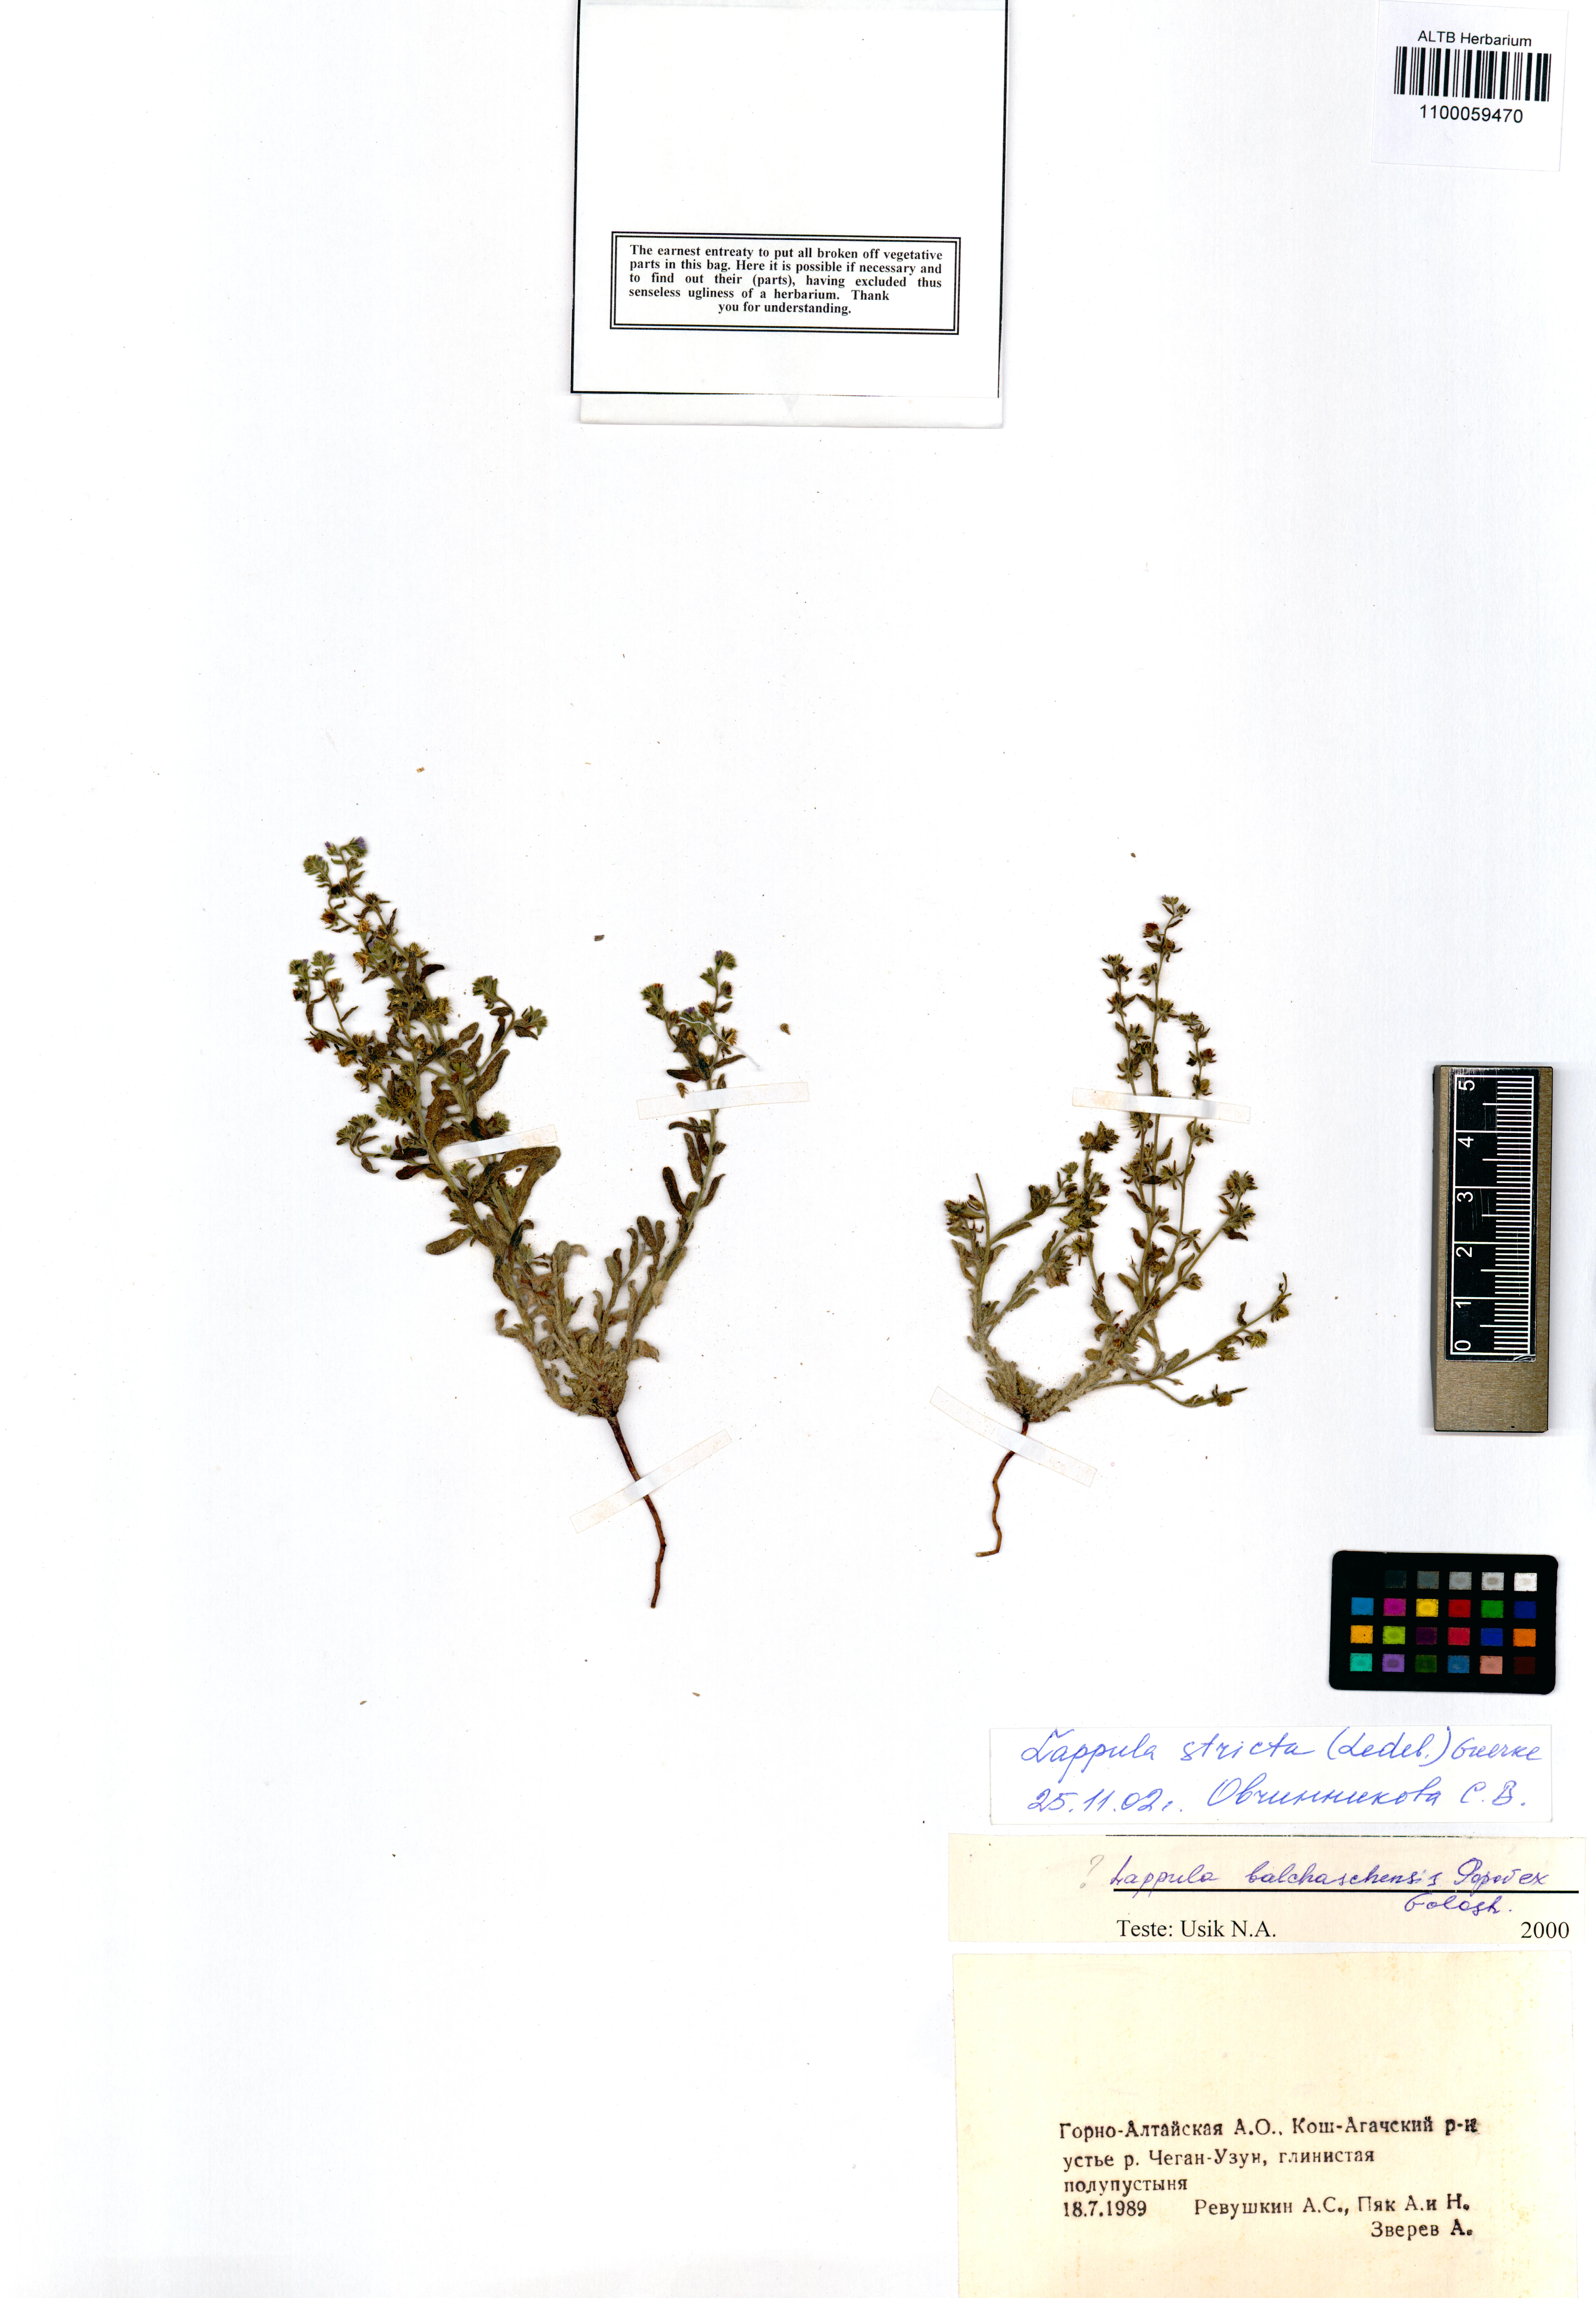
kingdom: Plantae
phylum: Tracheophyta
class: Magnoliopsida
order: Boraginales
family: Boraginaceae
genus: Lappula
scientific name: Lappula stricta
